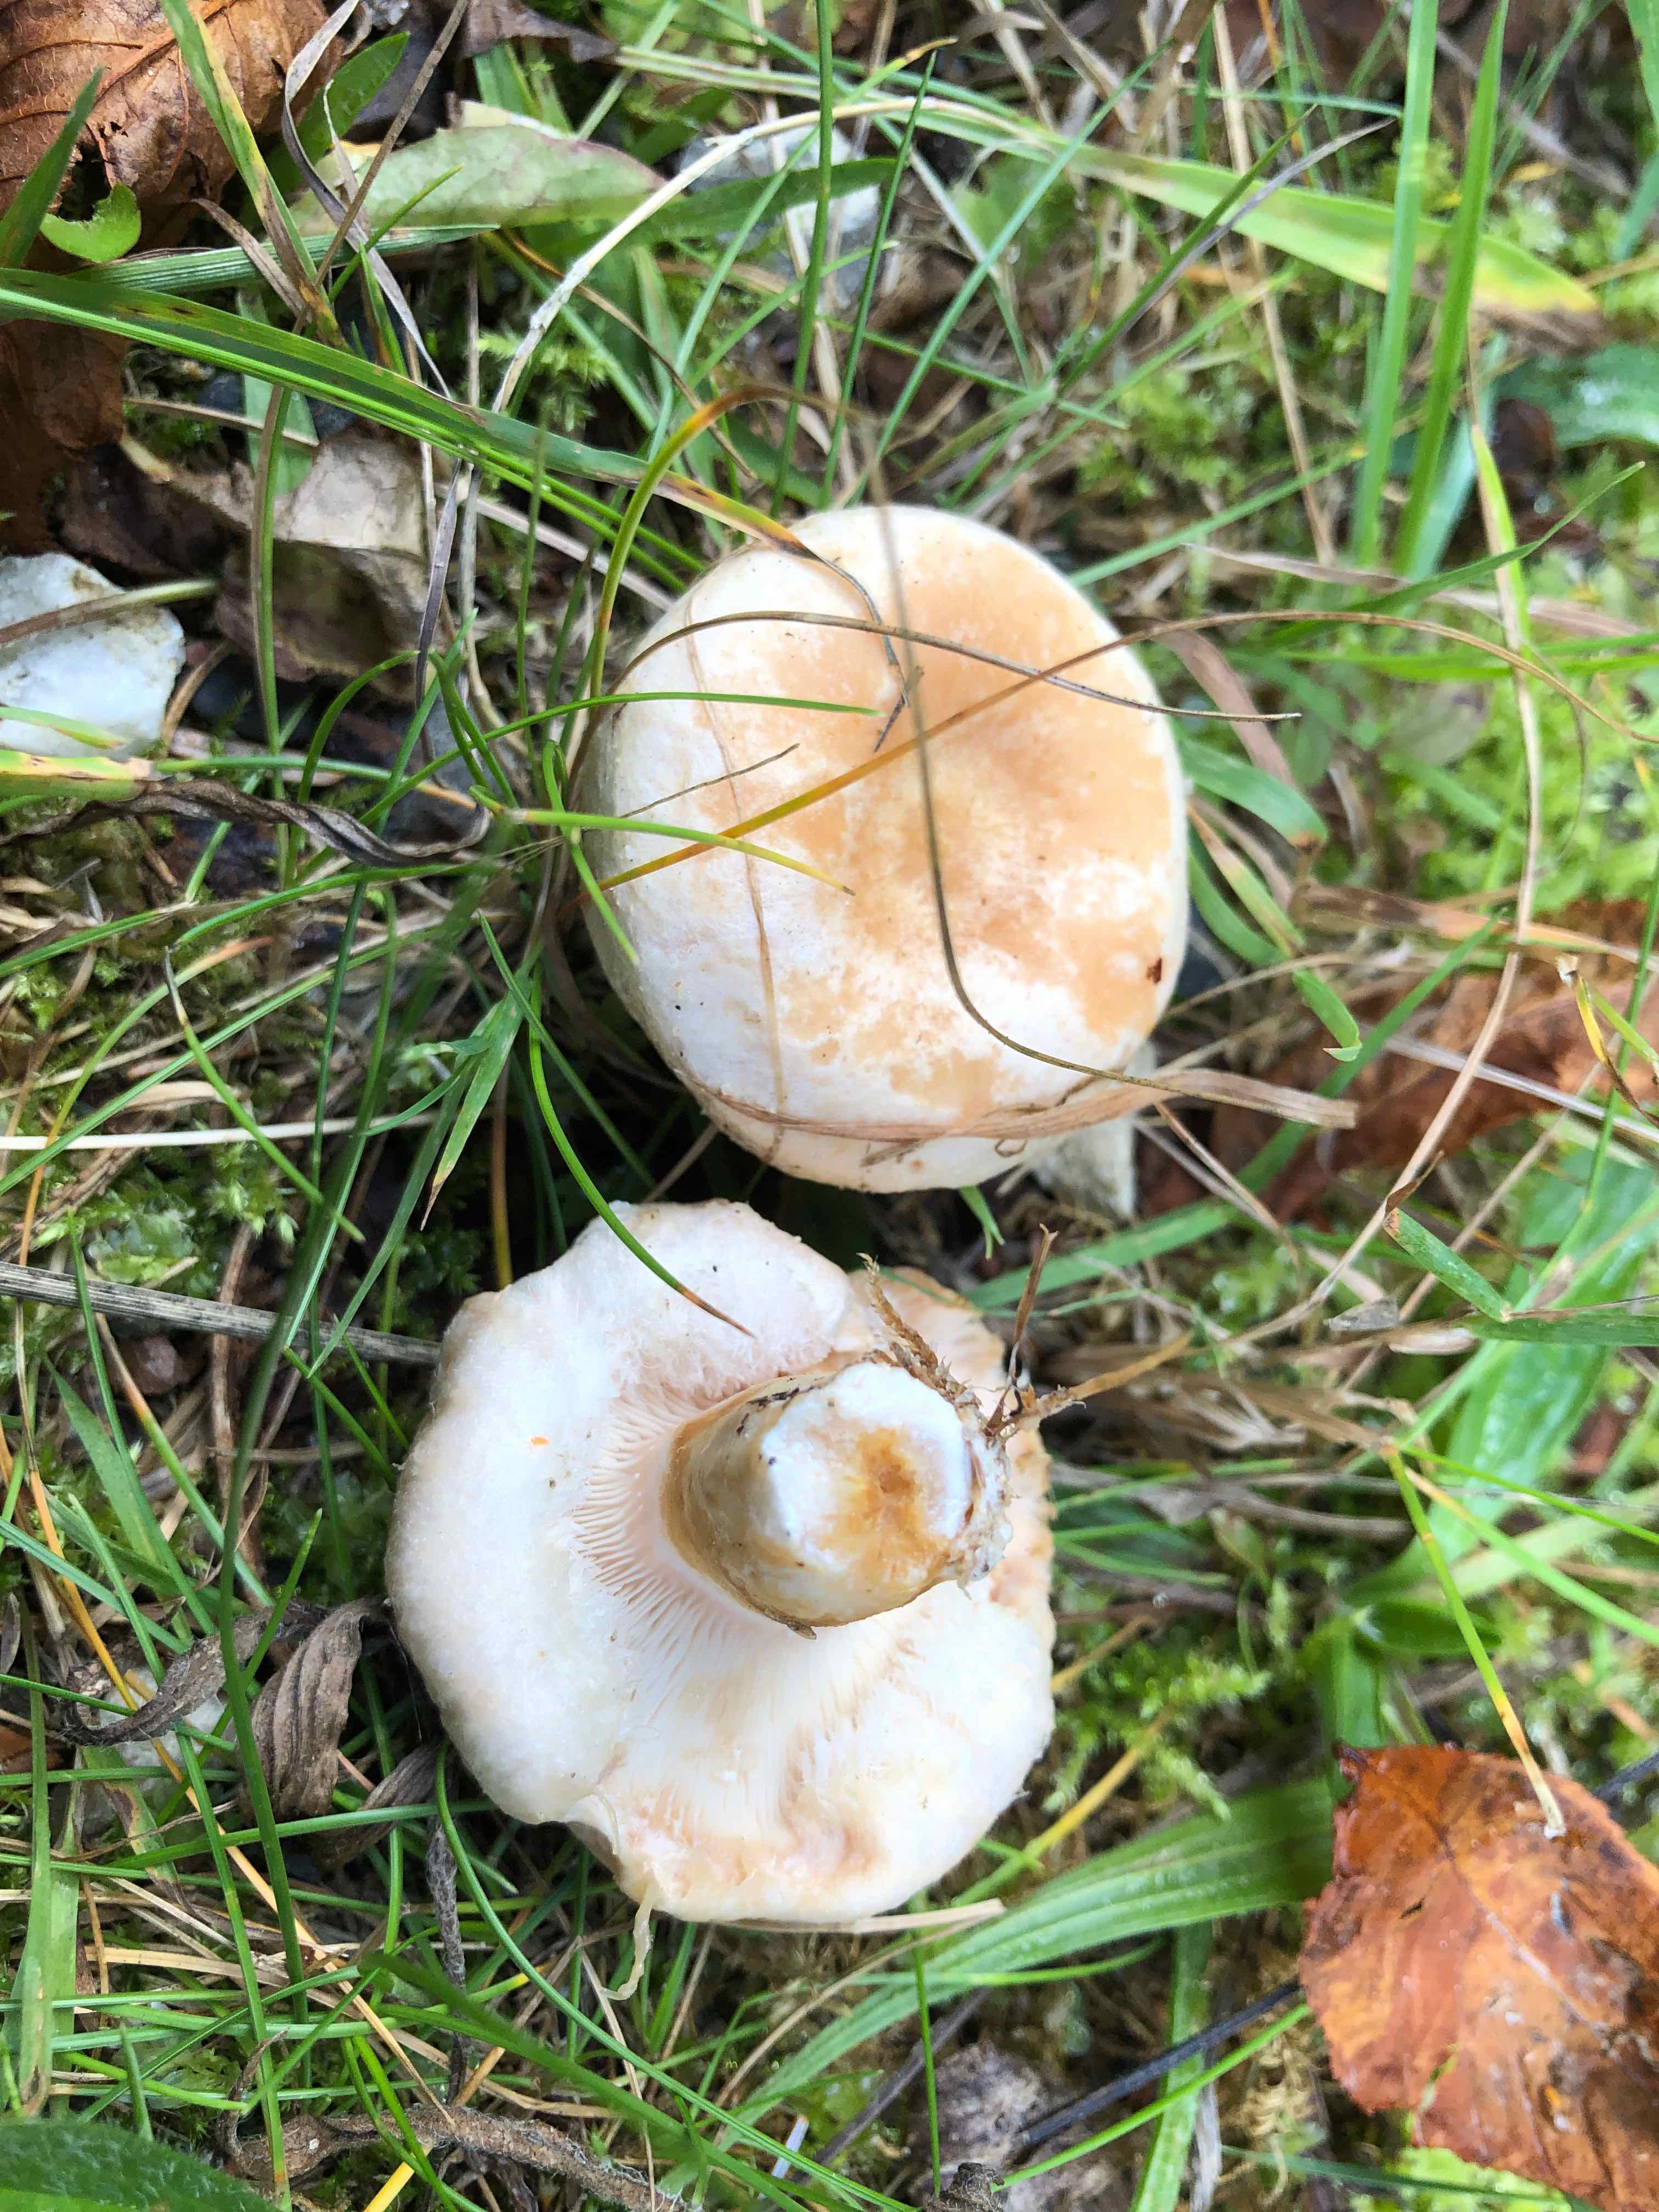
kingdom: Fungi
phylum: Basidiomycota
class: Agaricomycetes
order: Russulales
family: Russulaceae
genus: Lactarius
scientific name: Lactarius pubescens
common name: dunet mælkehat
